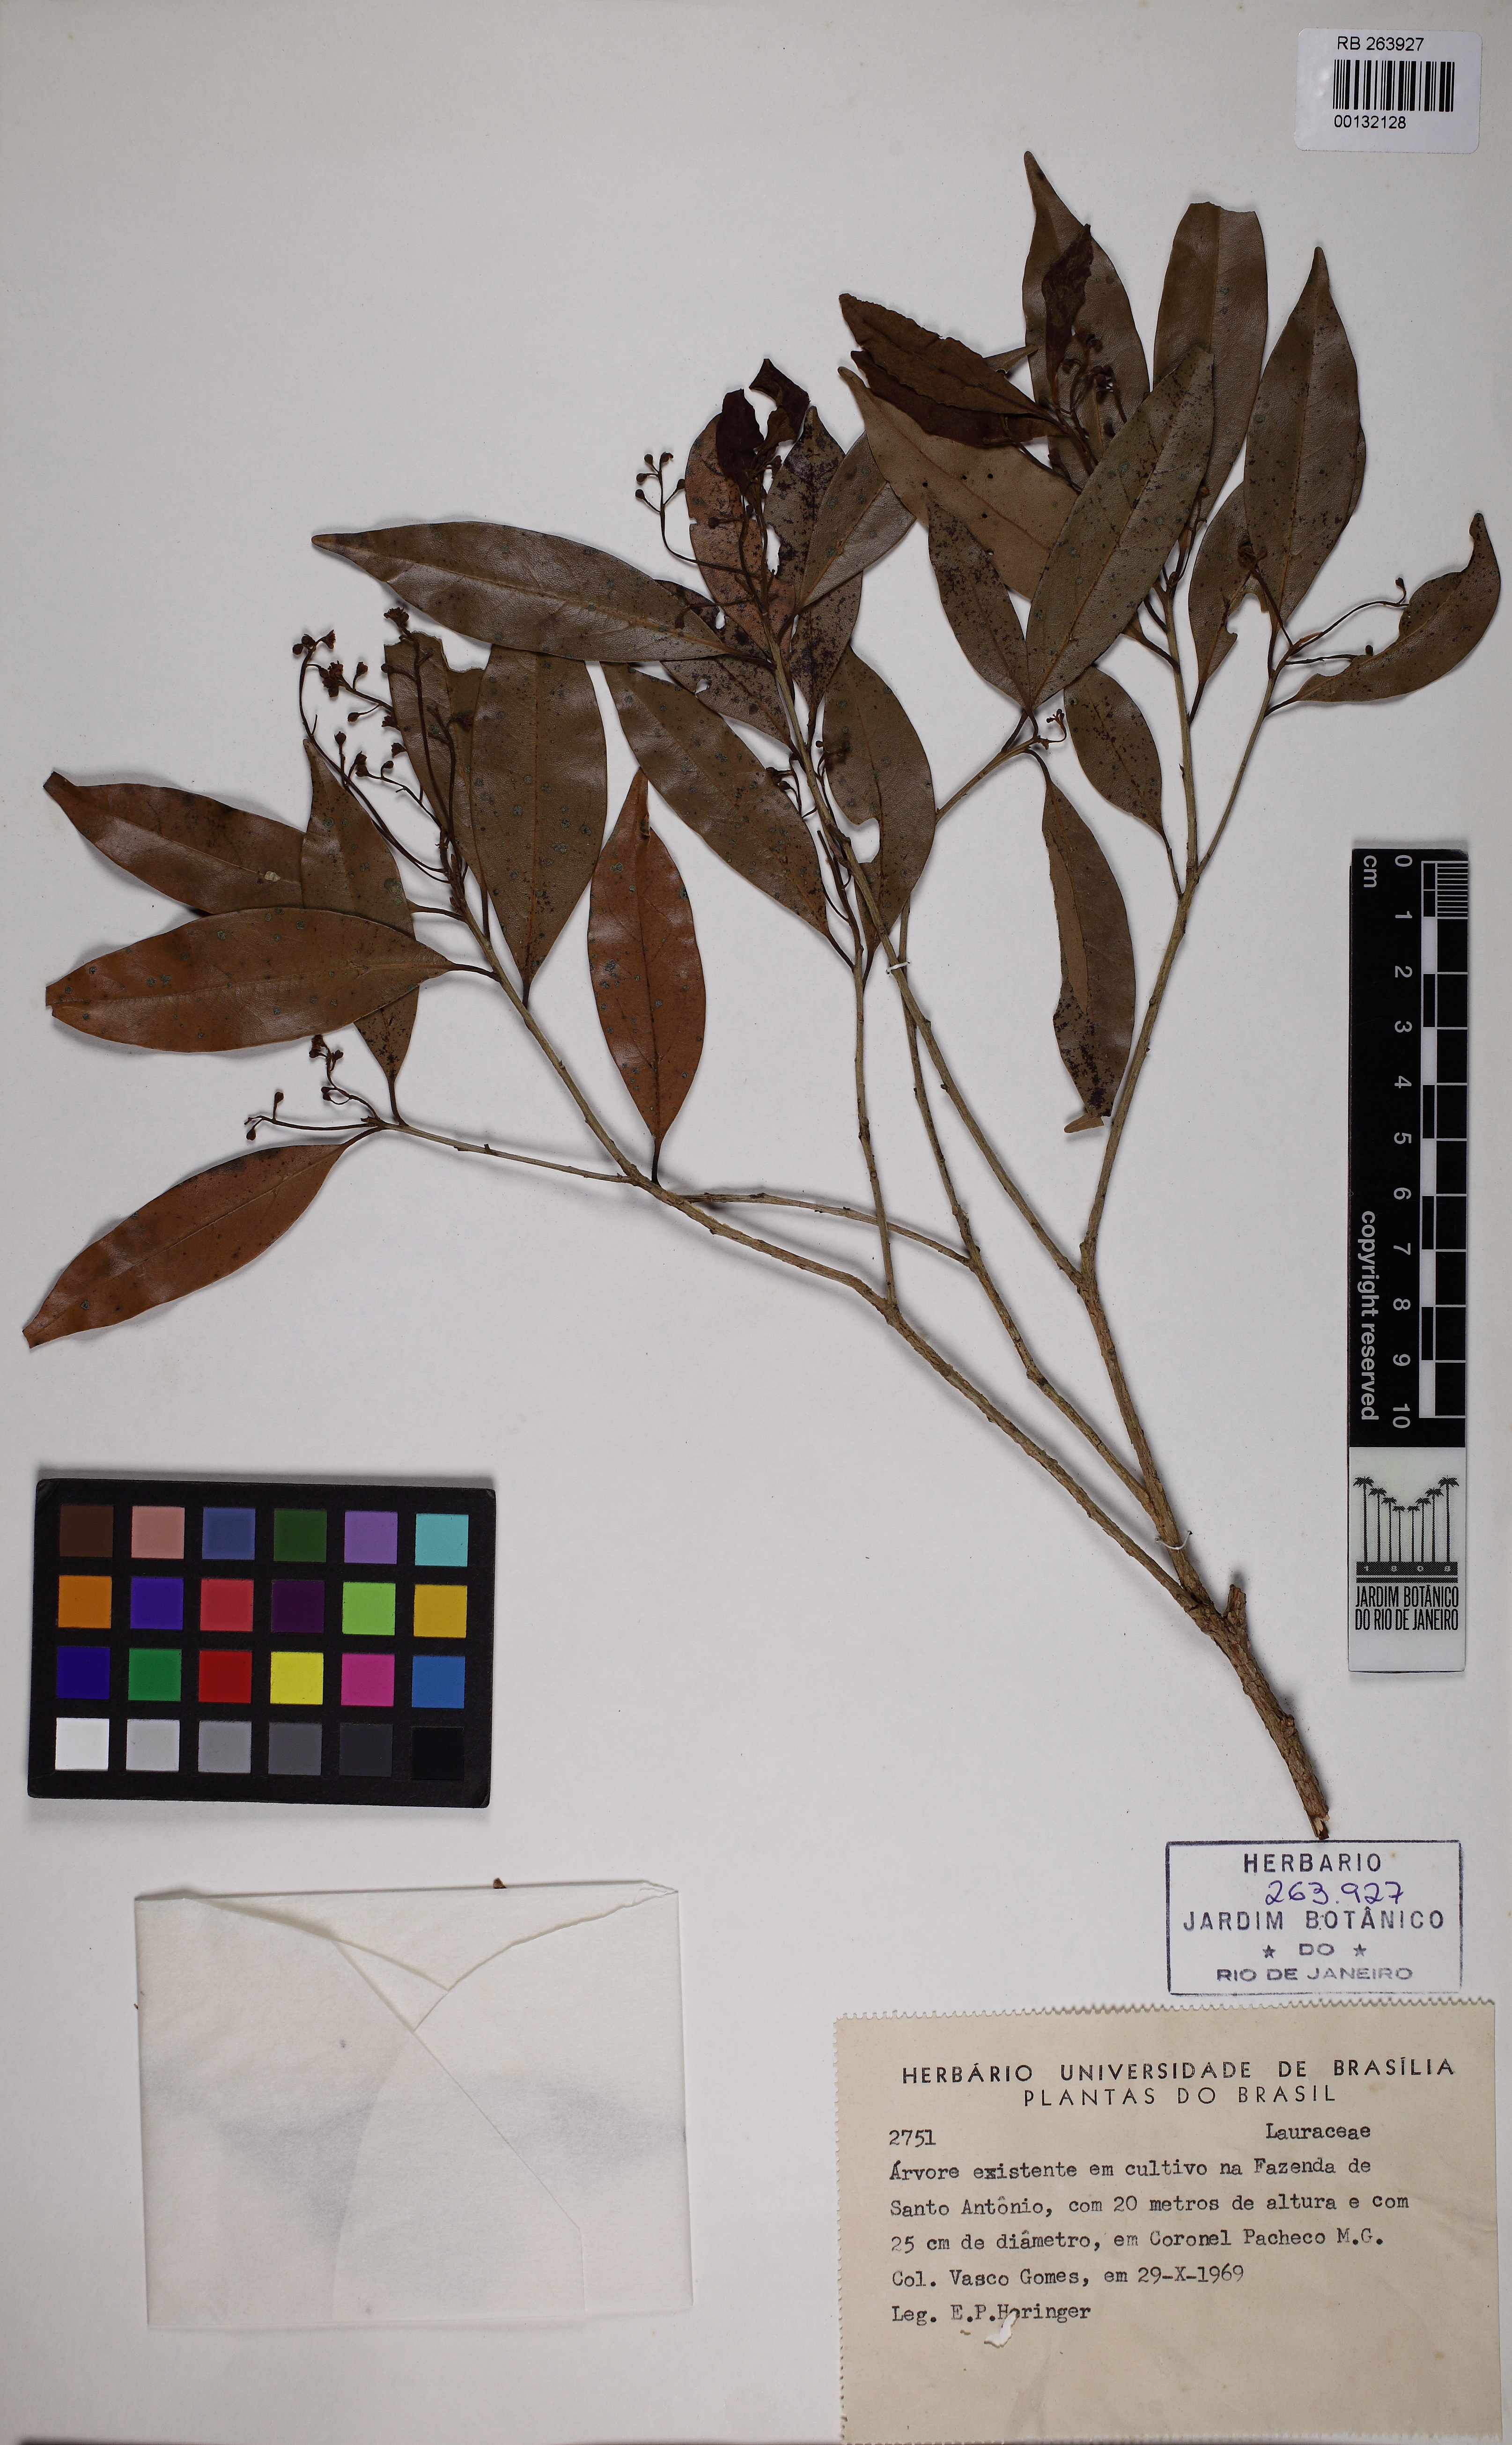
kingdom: Plantae
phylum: Tracheophyta
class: Magnoliopsida
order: Laurales
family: Lauraceae
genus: Ocotea
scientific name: Ocotea porosa
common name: Brazilian-walnut
